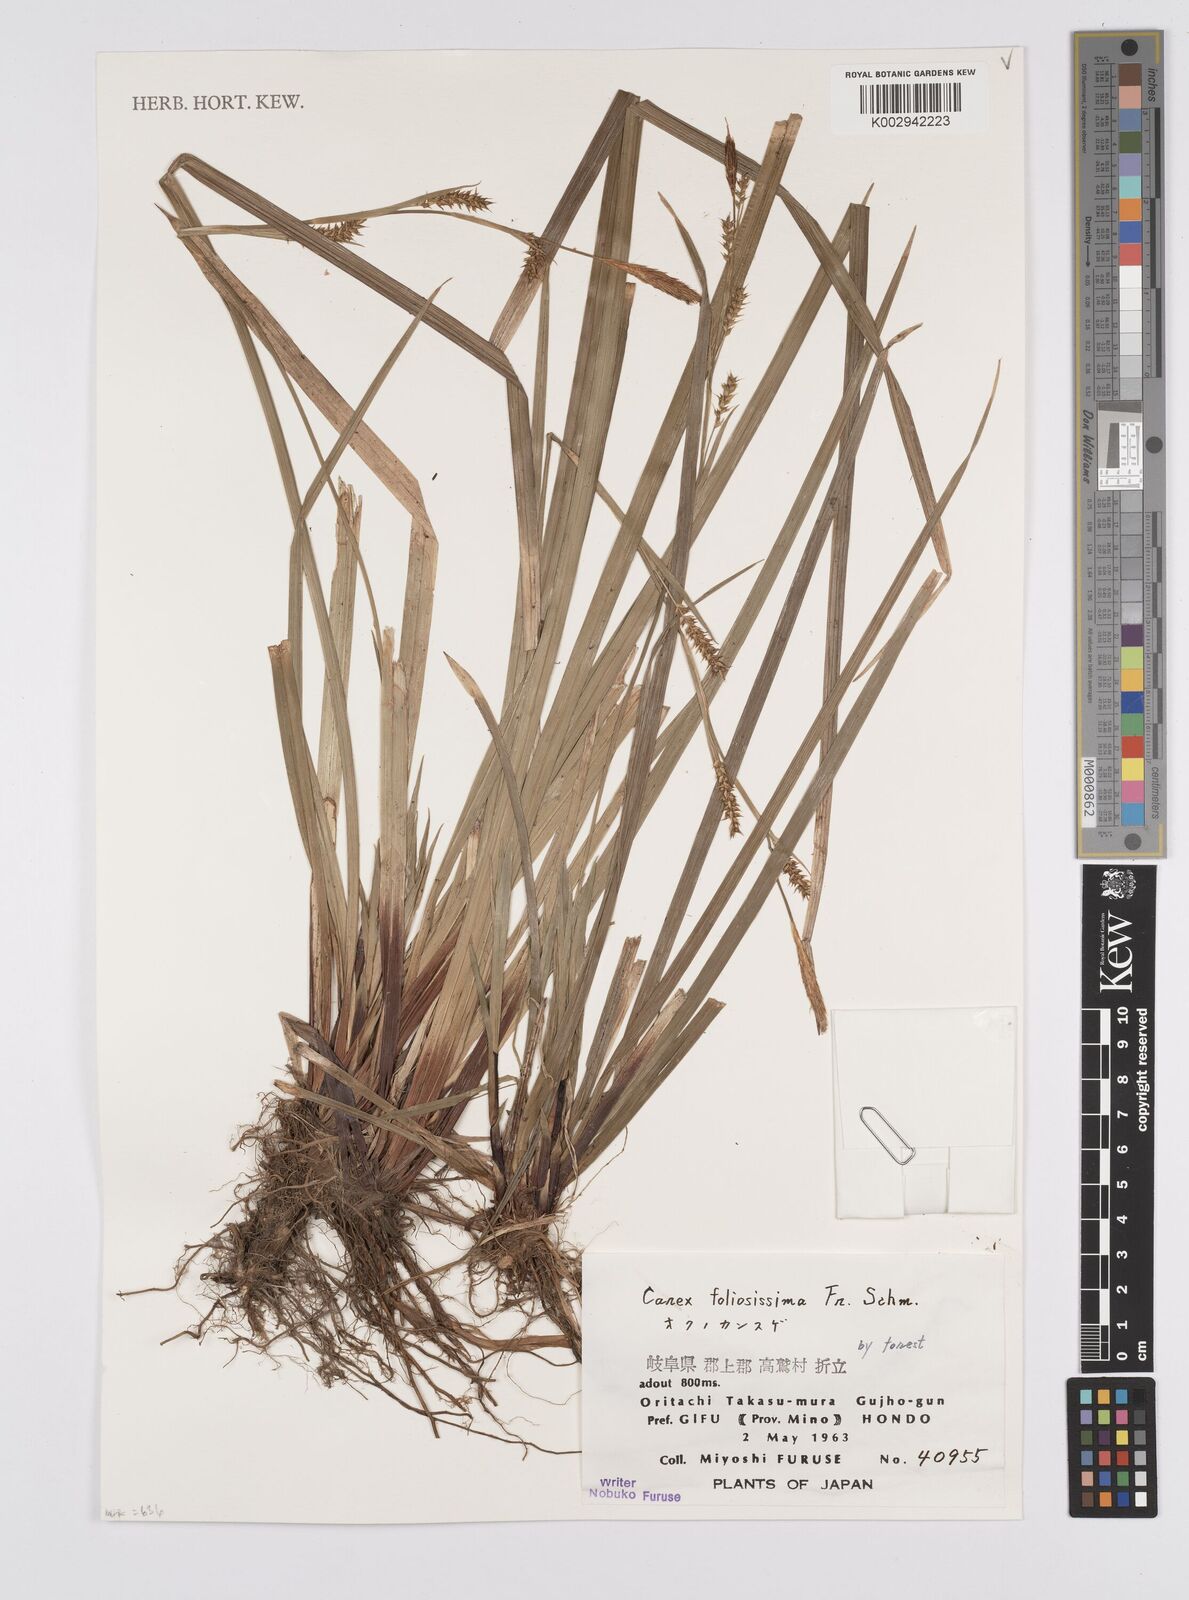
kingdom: Plantae
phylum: Tracheophyta
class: Liliopsida
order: Poales
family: Cyperaceae
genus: Carex
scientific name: Carex morrowii
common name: Japanese sedge
